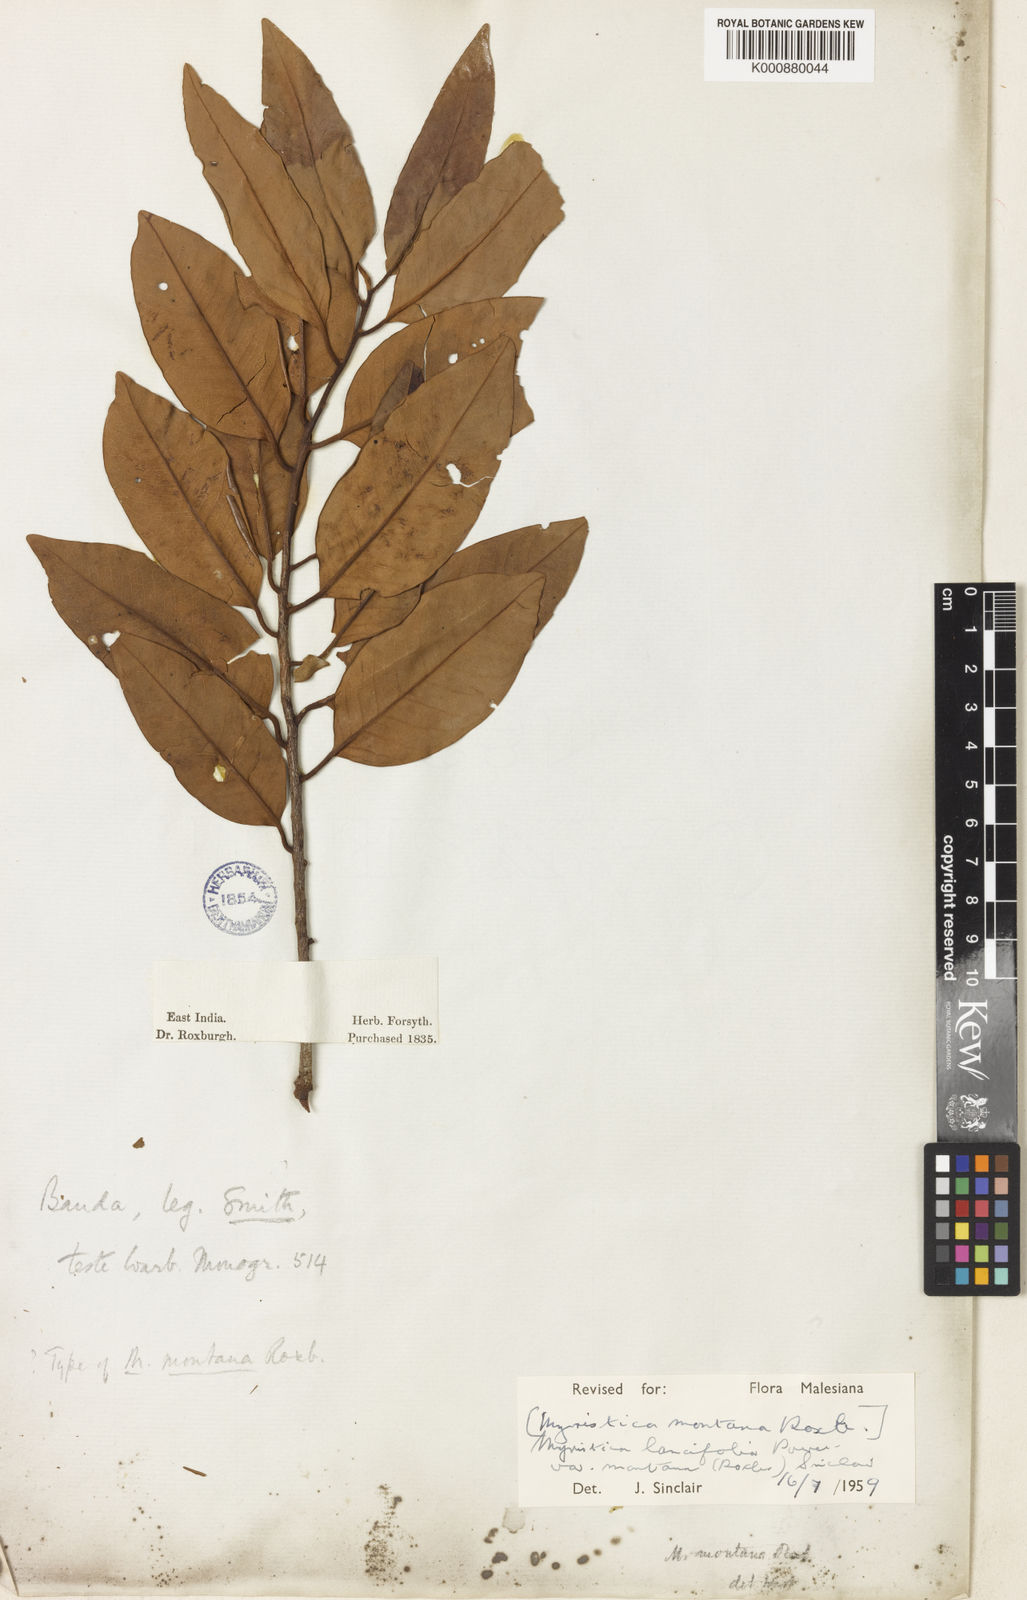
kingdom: Plantae
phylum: Tracheophyta
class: Magnoliopsida
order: Magnoliales
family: Myristicaceae
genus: Myristica
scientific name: Myristica lancifolia
